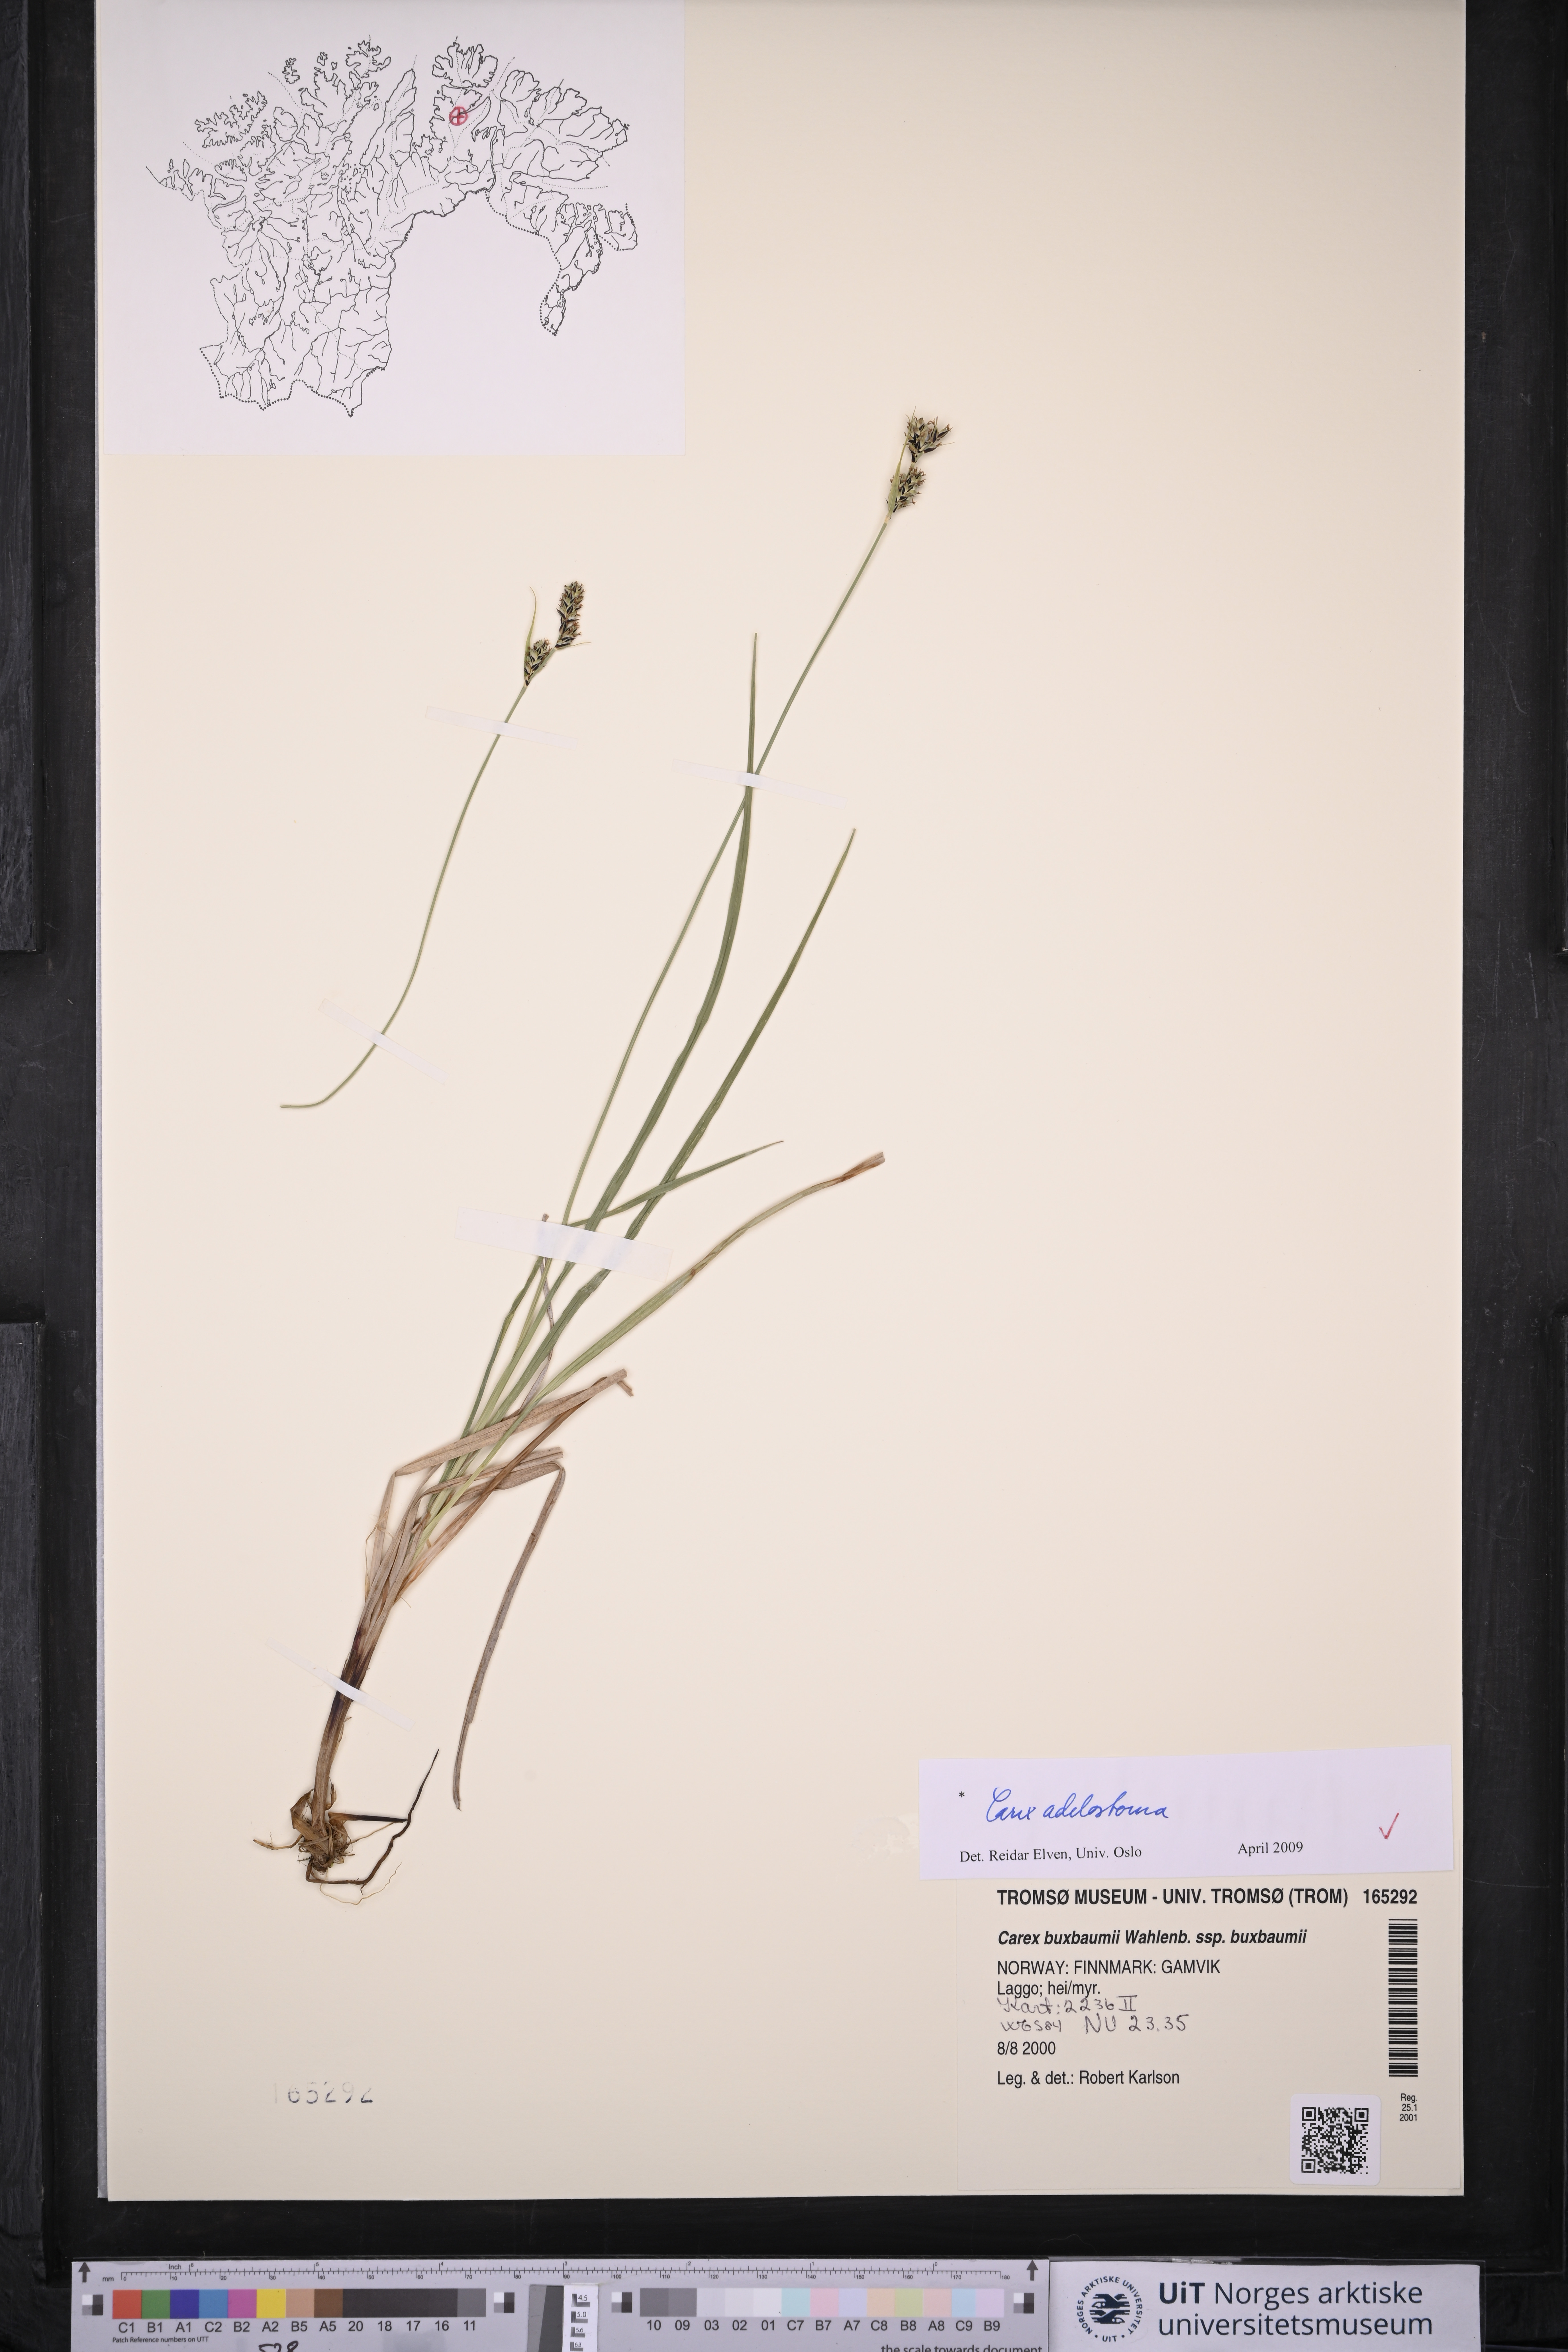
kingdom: Plantae
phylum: Tracheophyta
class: Liliopsida
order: Poales
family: Cyperaceae
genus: Carex
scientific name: Carex adelostoma
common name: Circumpolar sedge
